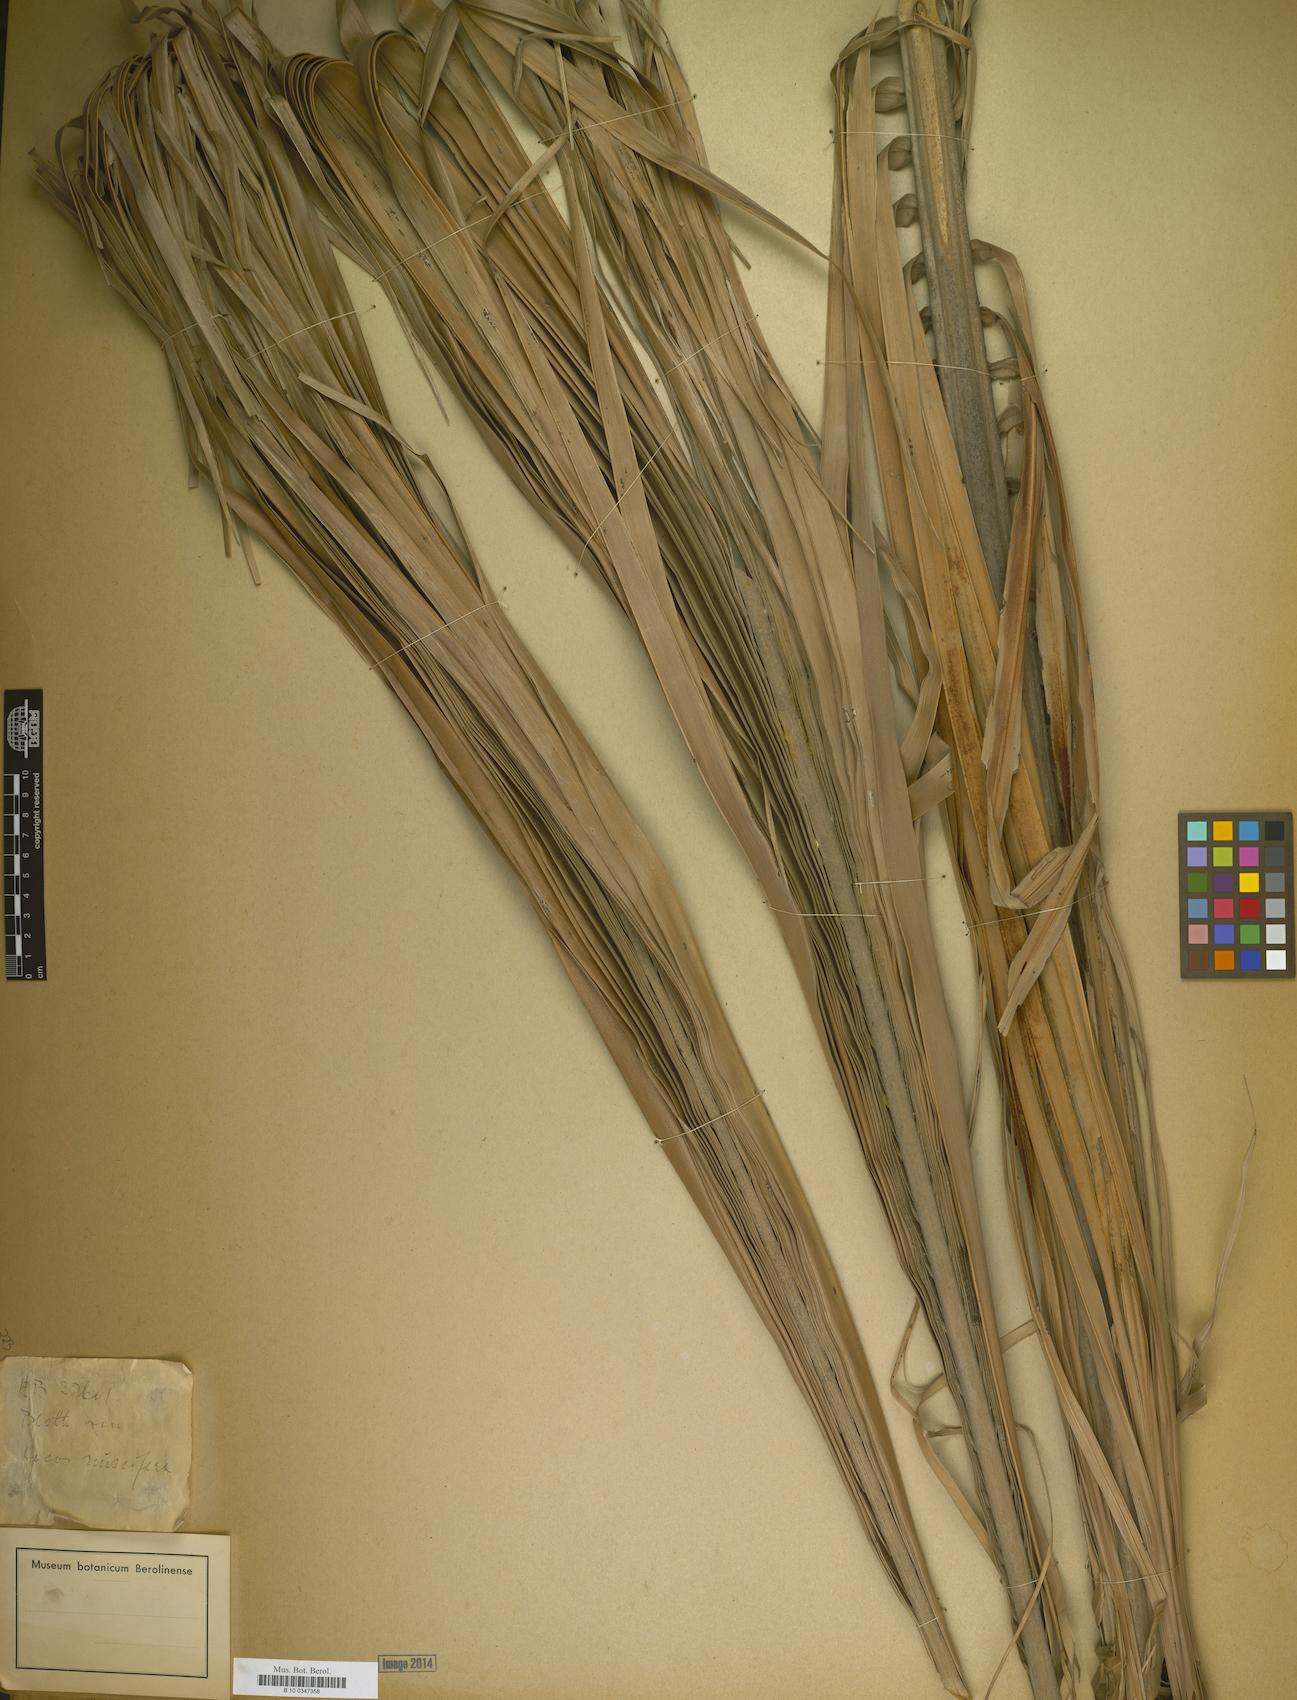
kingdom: Plantae
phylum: Tracheophyta
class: Liliopsida
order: Arecales
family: Arecaceae
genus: Cocos
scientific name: Cocos nucifera
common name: Coconut palm
